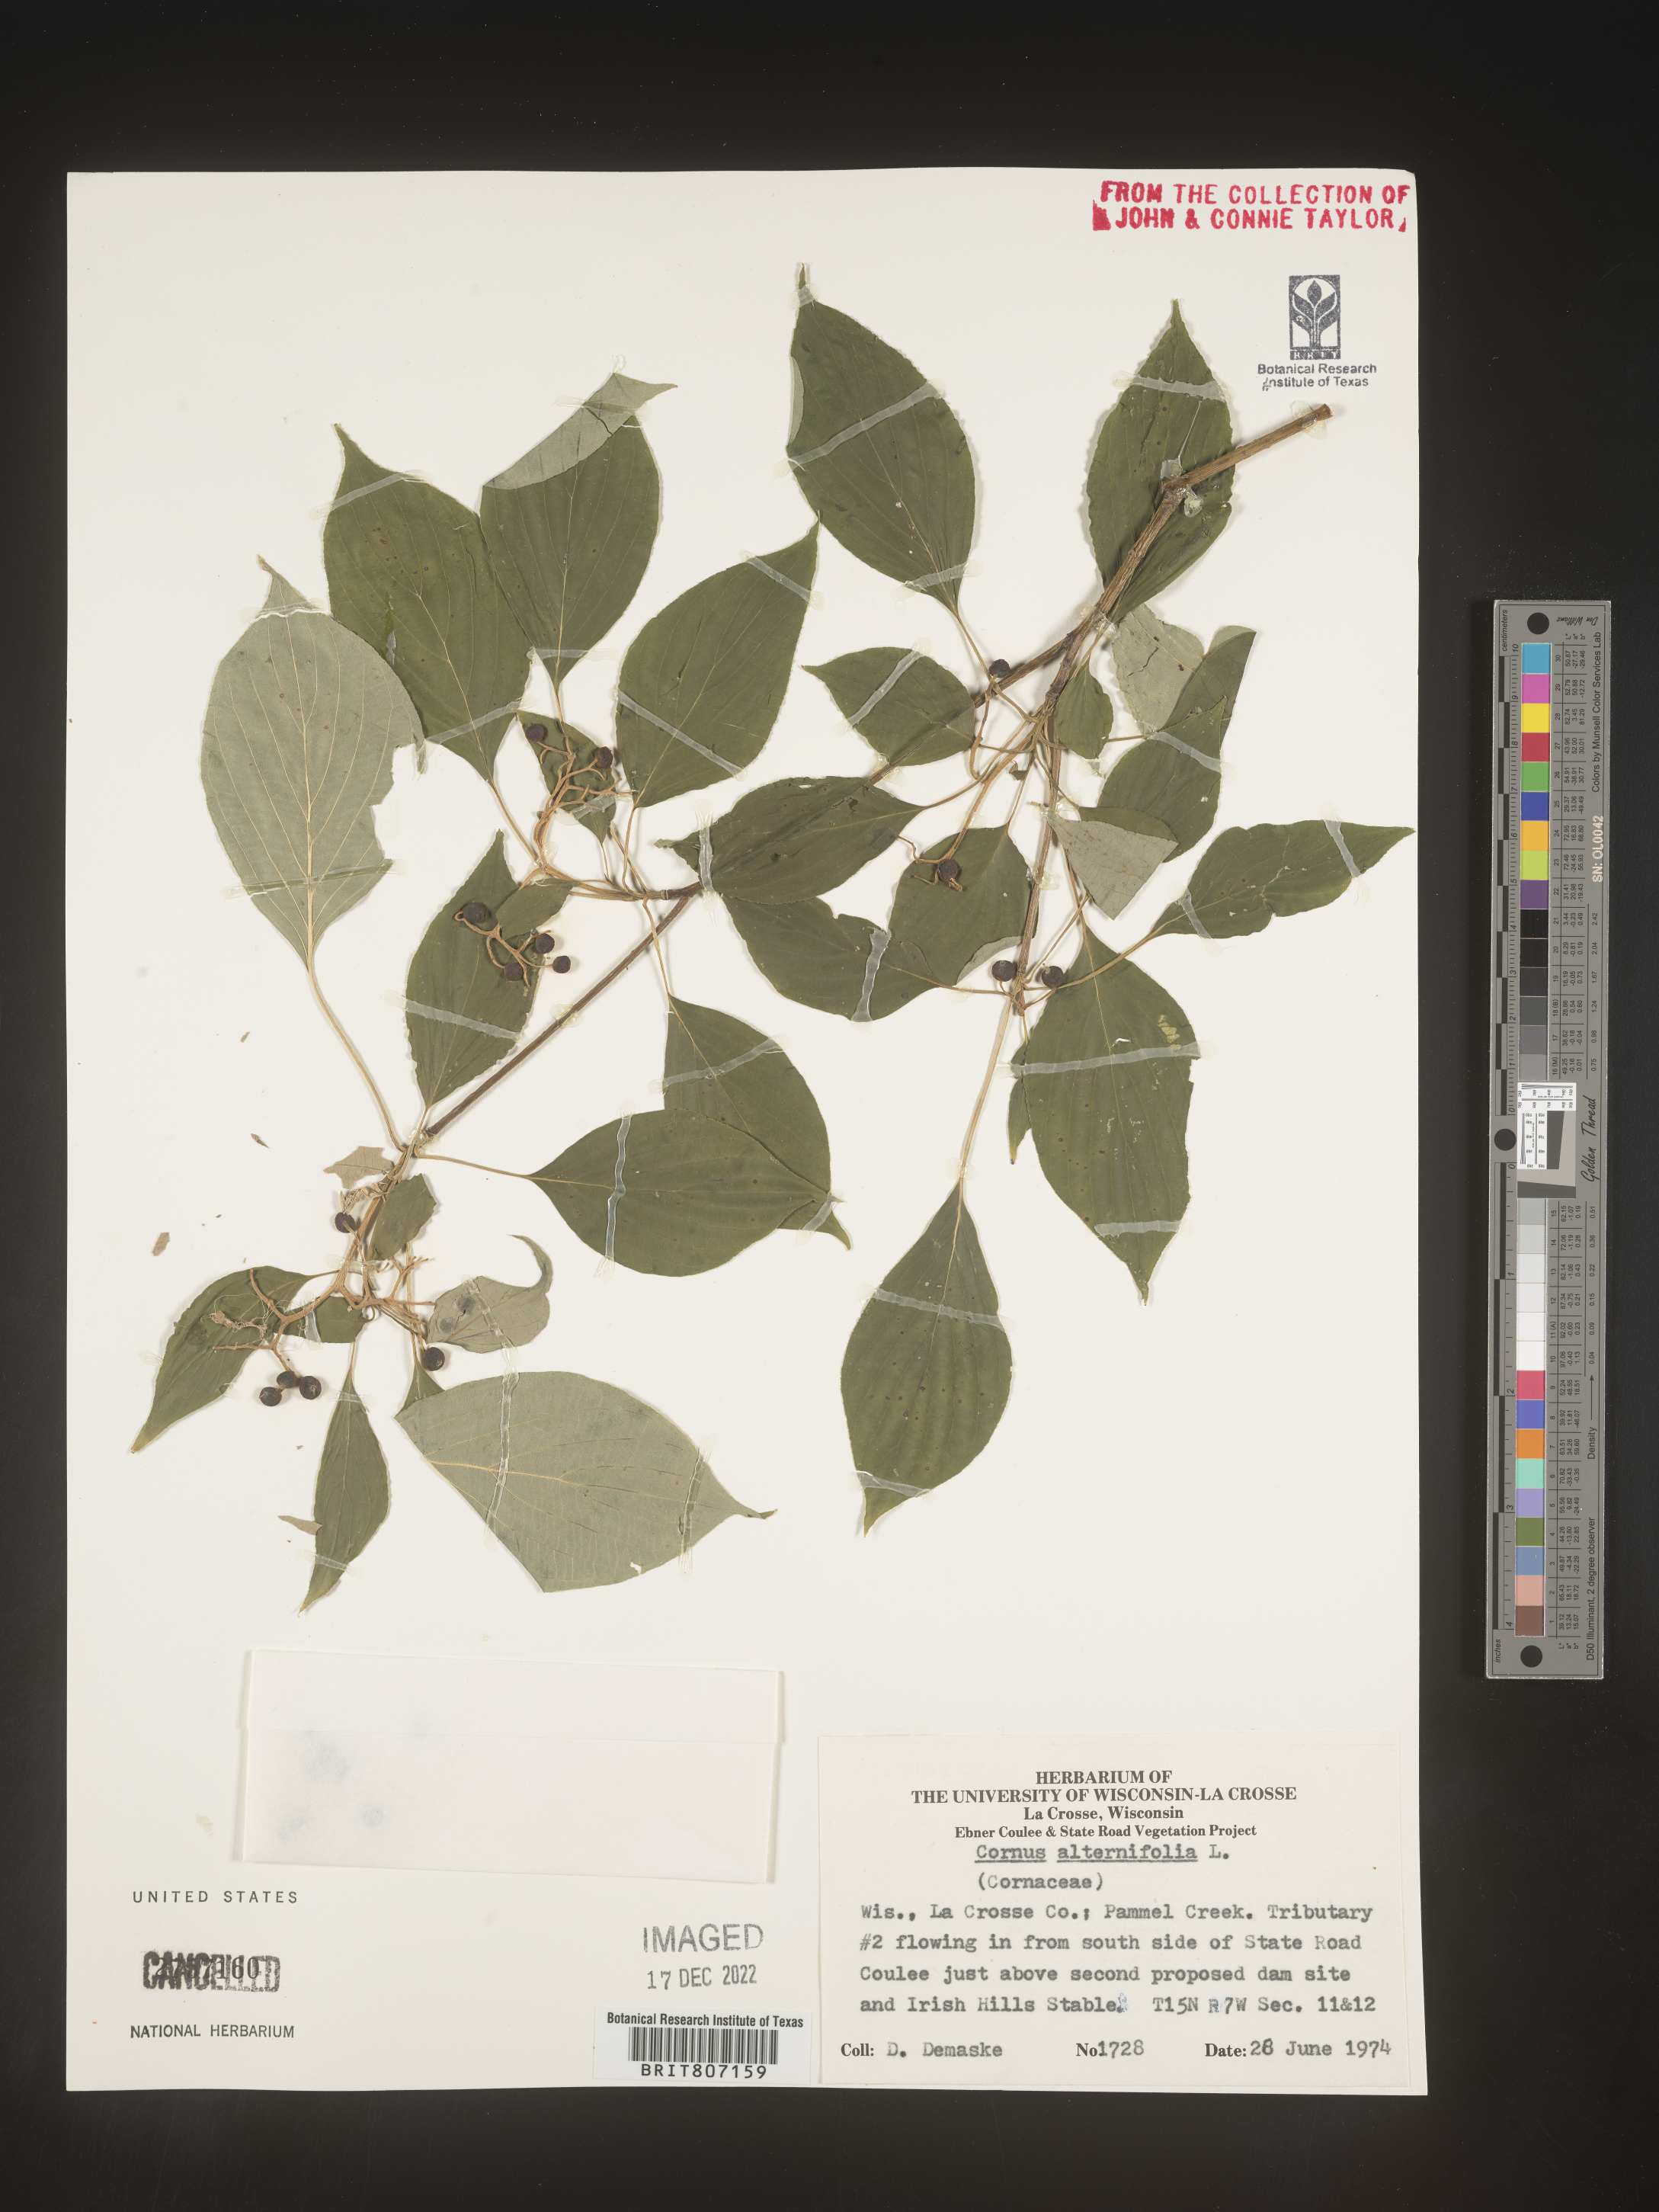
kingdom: Plantae
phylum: Tracheophyta
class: Magnoliopsida
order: Cornales
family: Cornaceae
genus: Cornus
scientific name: Cornus alternifolia
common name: Pagoda dogwood
